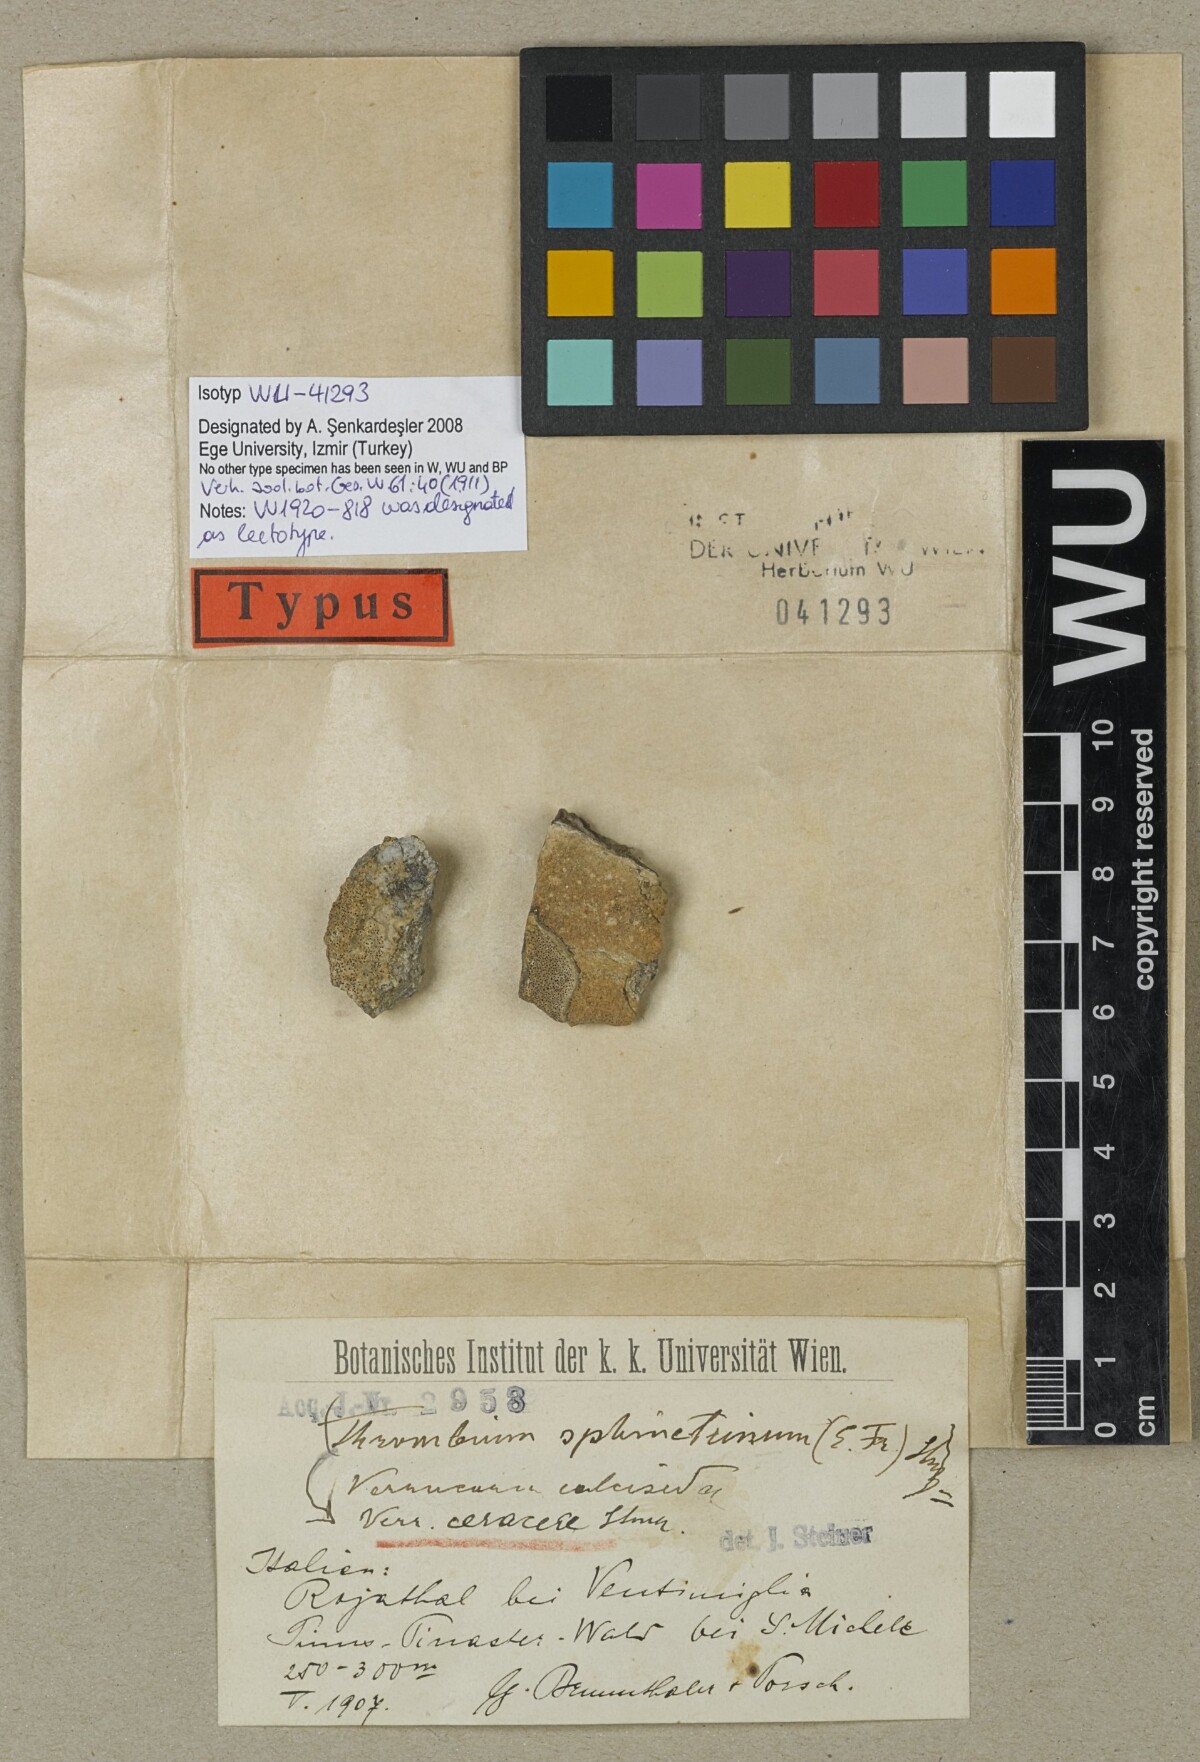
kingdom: Fungi
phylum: Ascomycota
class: Eurotiomycetes
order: Verrucariales
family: Verrucariaceae
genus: Bagliettoa
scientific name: Bagliettoa ceracea
